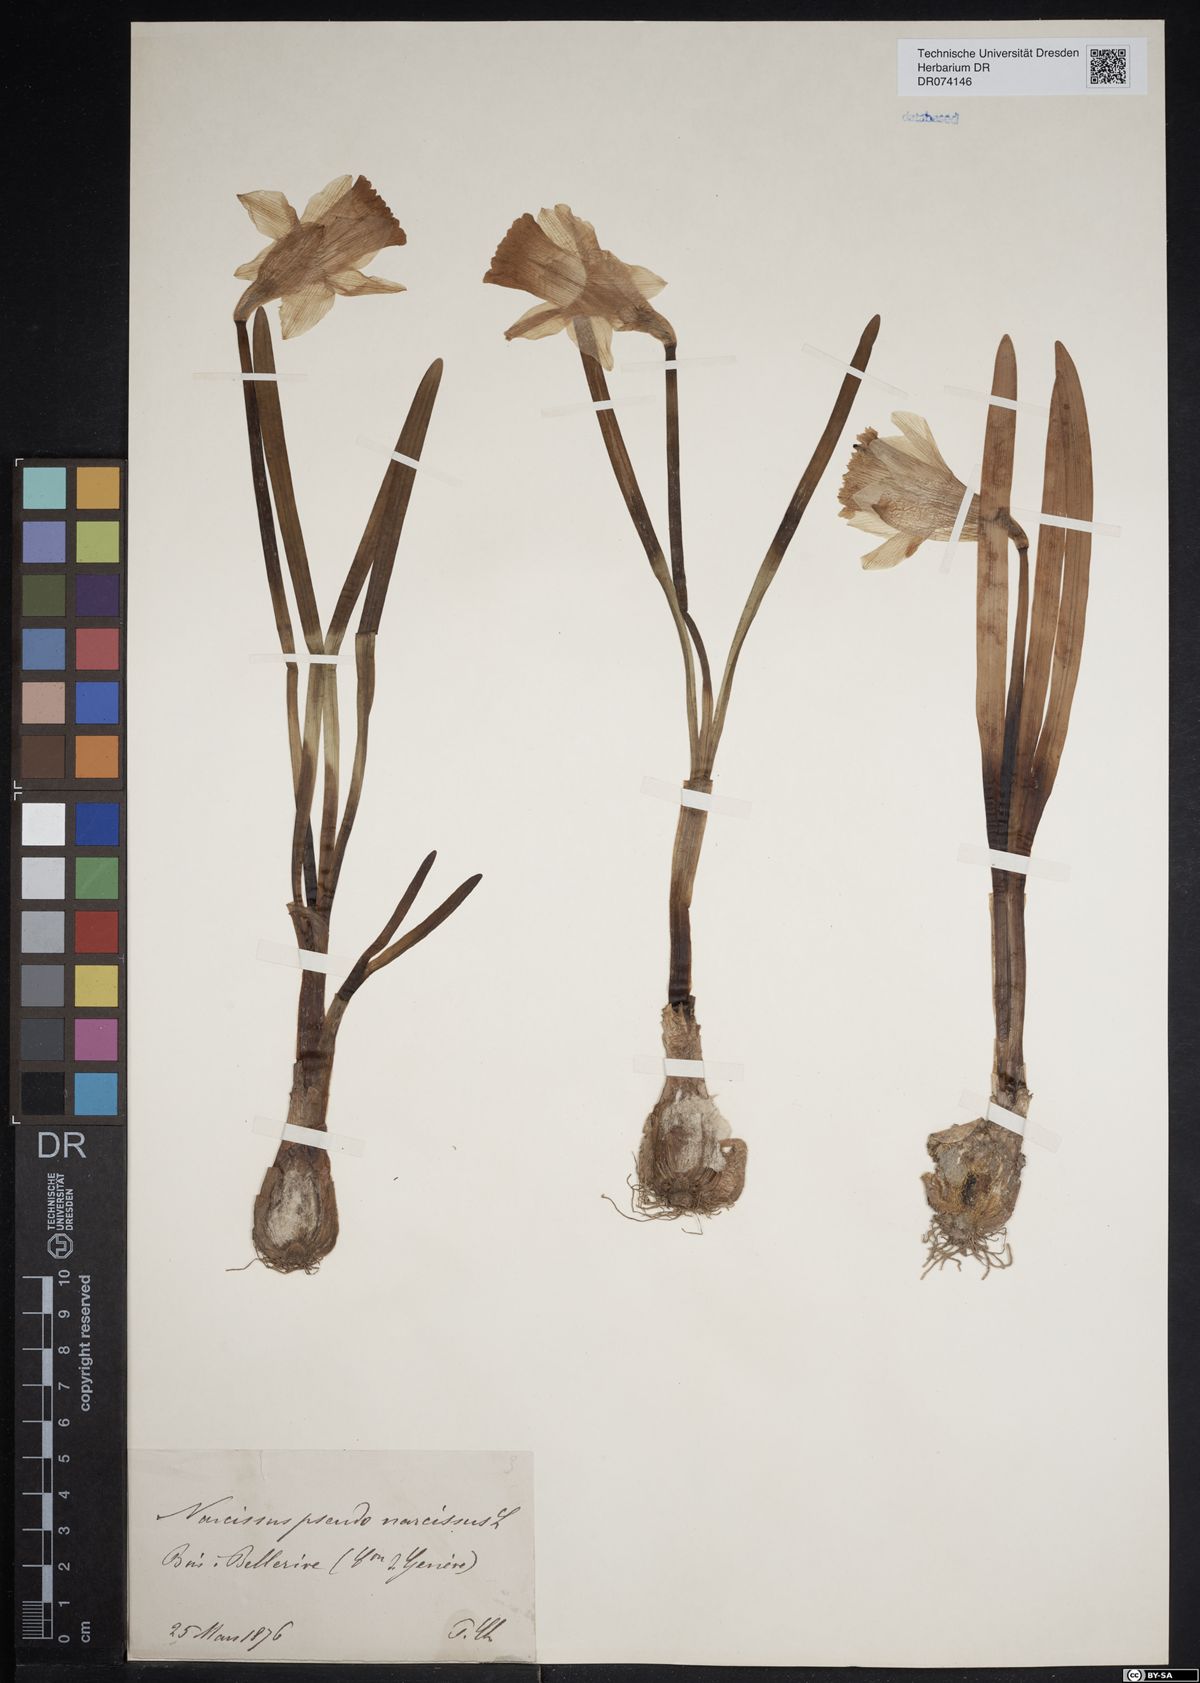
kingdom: Plantae
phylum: Tracheophyta
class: Liliopsida
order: Asparagales
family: Amaryllidaceae
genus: Narcissus
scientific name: Narcissus pseudonarcissus
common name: Daffodil
